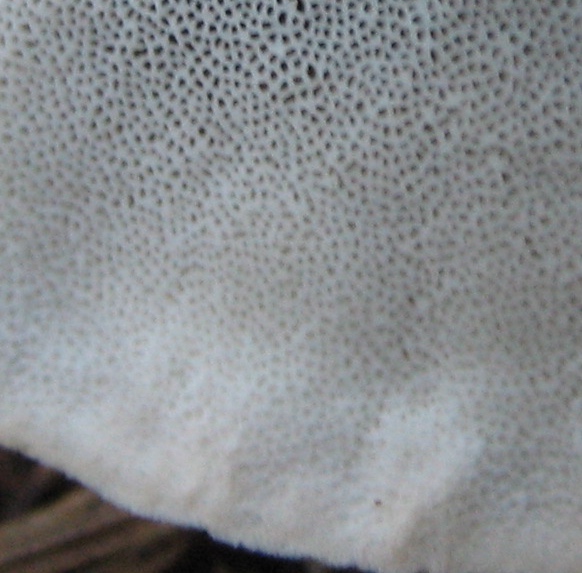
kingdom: Fungi
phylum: Basidiomycota
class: Agaricomycetes
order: Polyporales
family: Polyporaceae
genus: Cyanosporus
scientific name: Cyanosporus caesius
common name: blålig kødporesvamp
